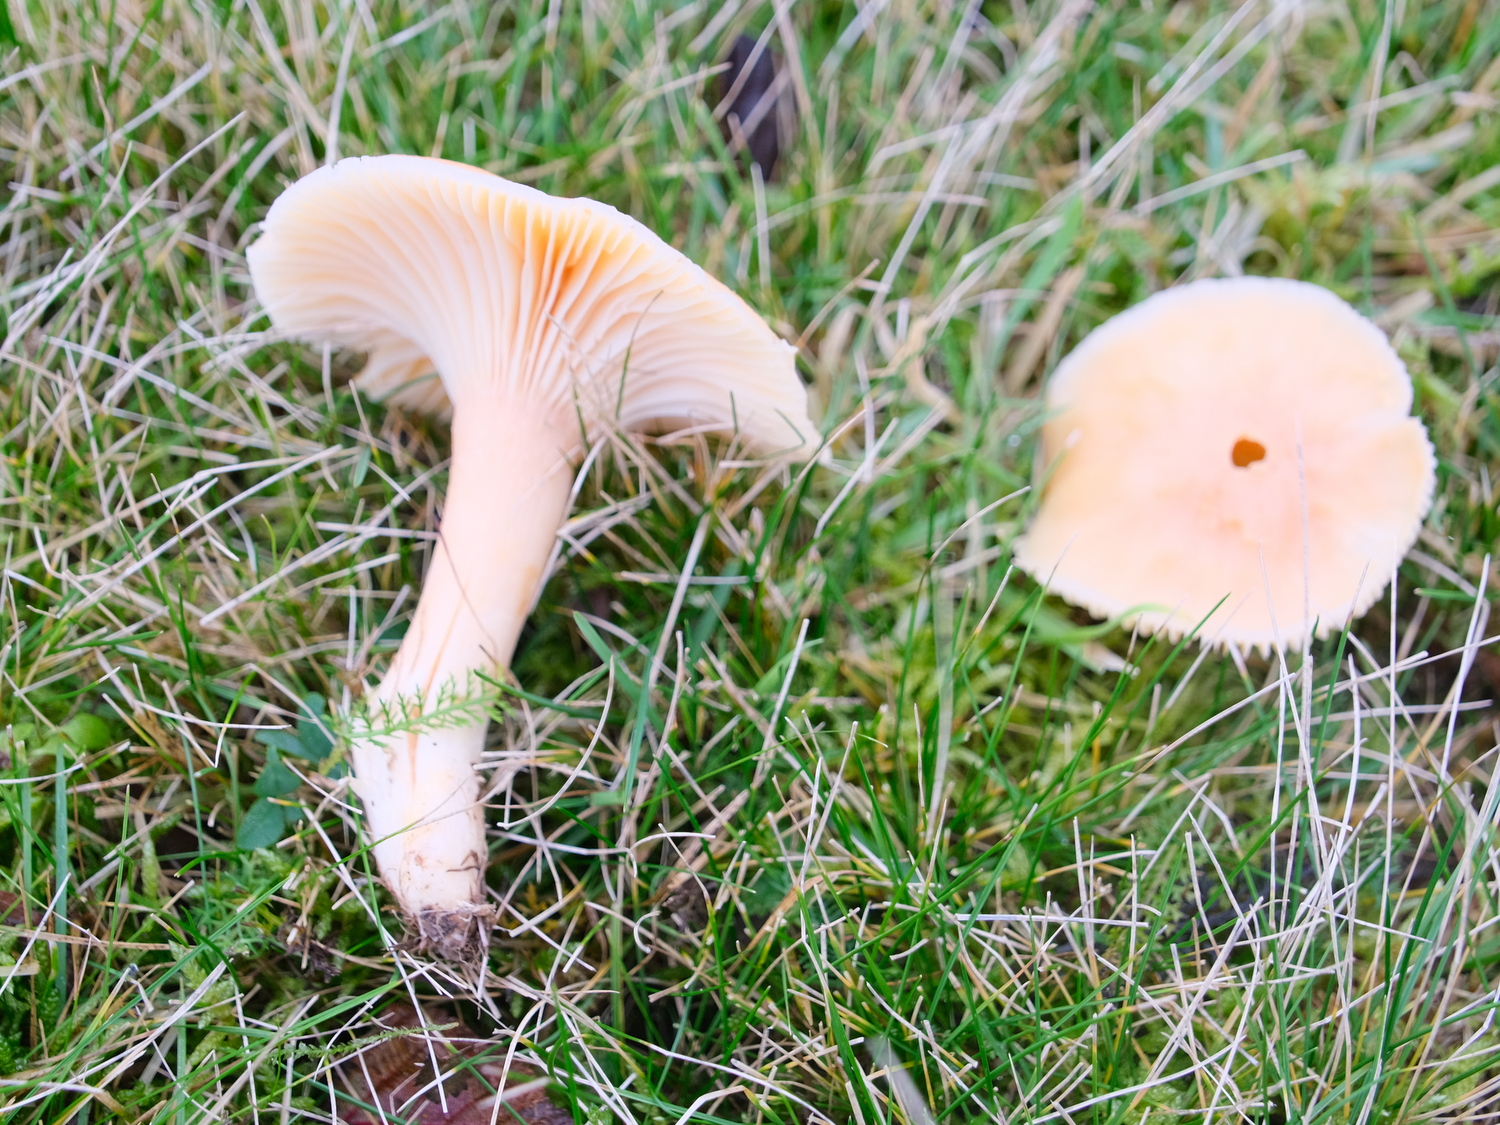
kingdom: Fungi
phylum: Basidiomycota
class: Agaricomycetes
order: Agaricales
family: Hygrophoraceae
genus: Cuphophyllus
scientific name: Cuphophyllus pratensis
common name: eng-vokshat
